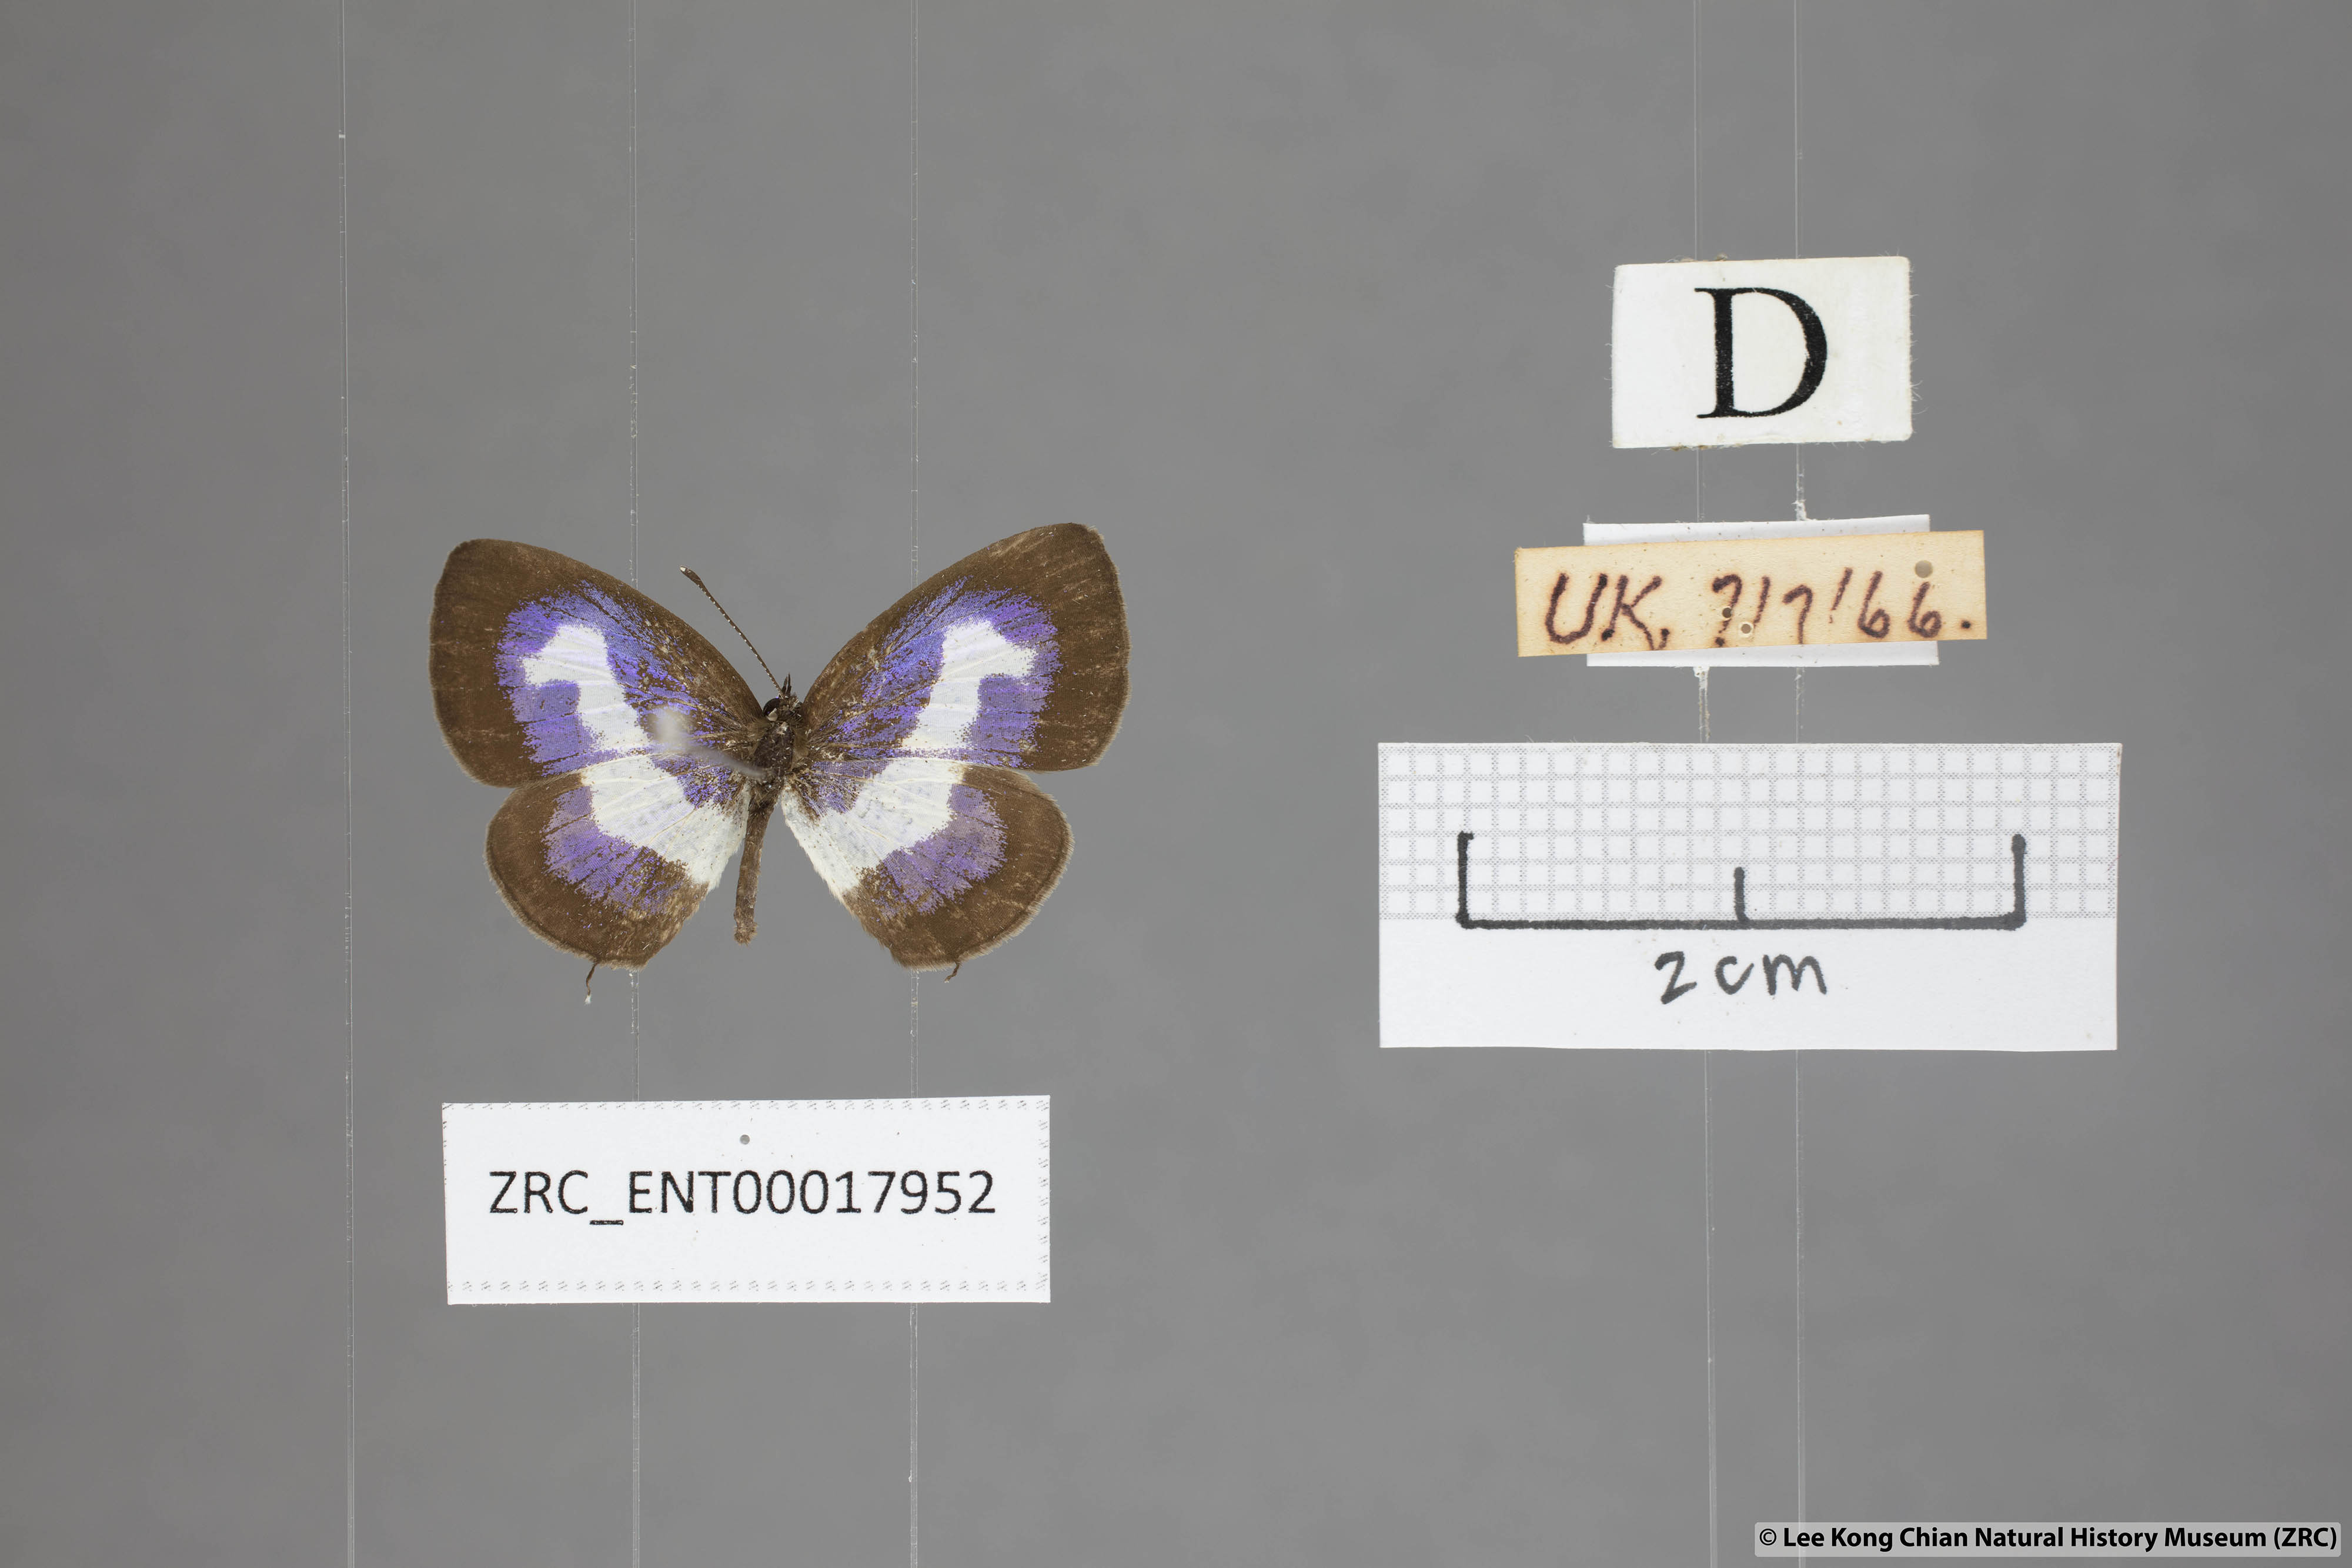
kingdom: Animalia
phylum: Arthropoda
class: Insecta
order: Lepidoptera
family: Lycaenidae
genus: Discolampa
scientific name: Discolampa ethion
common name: Banded blue pierrot
